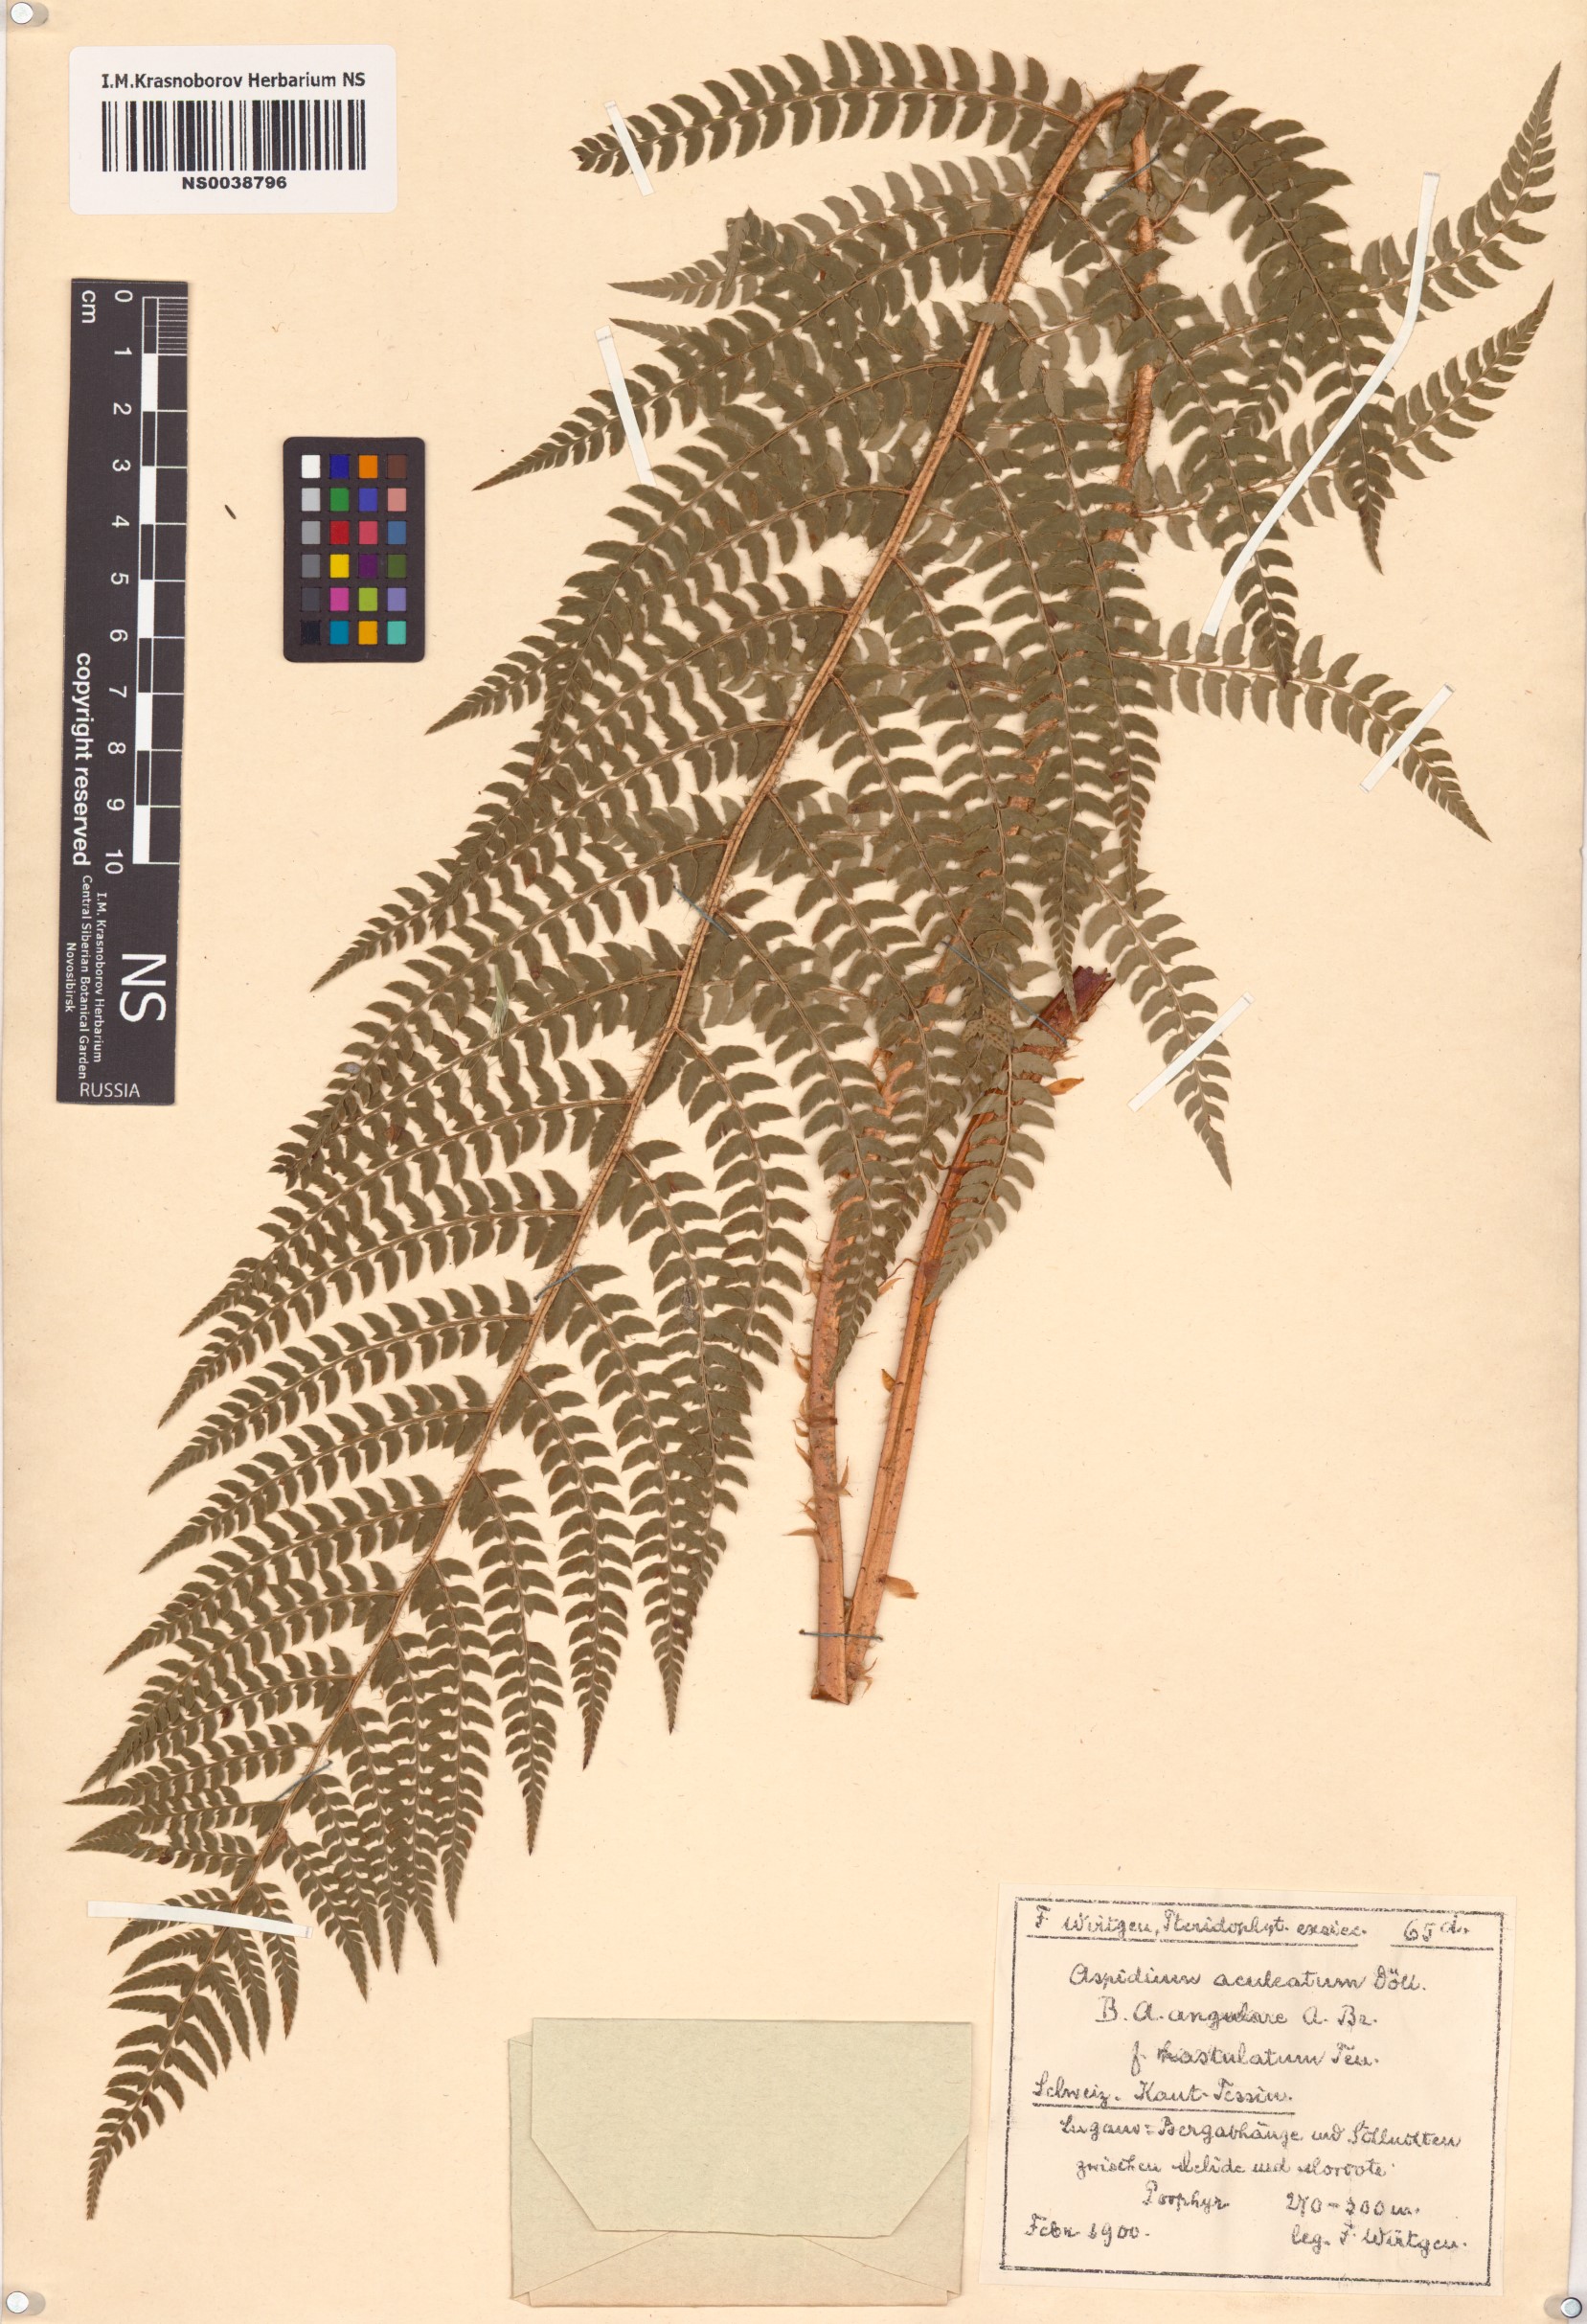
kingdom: Plantae
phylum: Tracheophyta
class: Polypodiopsida
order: Polypodiales
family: Dryopteridaceae
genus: Polystichum
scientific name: Polystichum aculeatum
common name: Hard shield-fern
